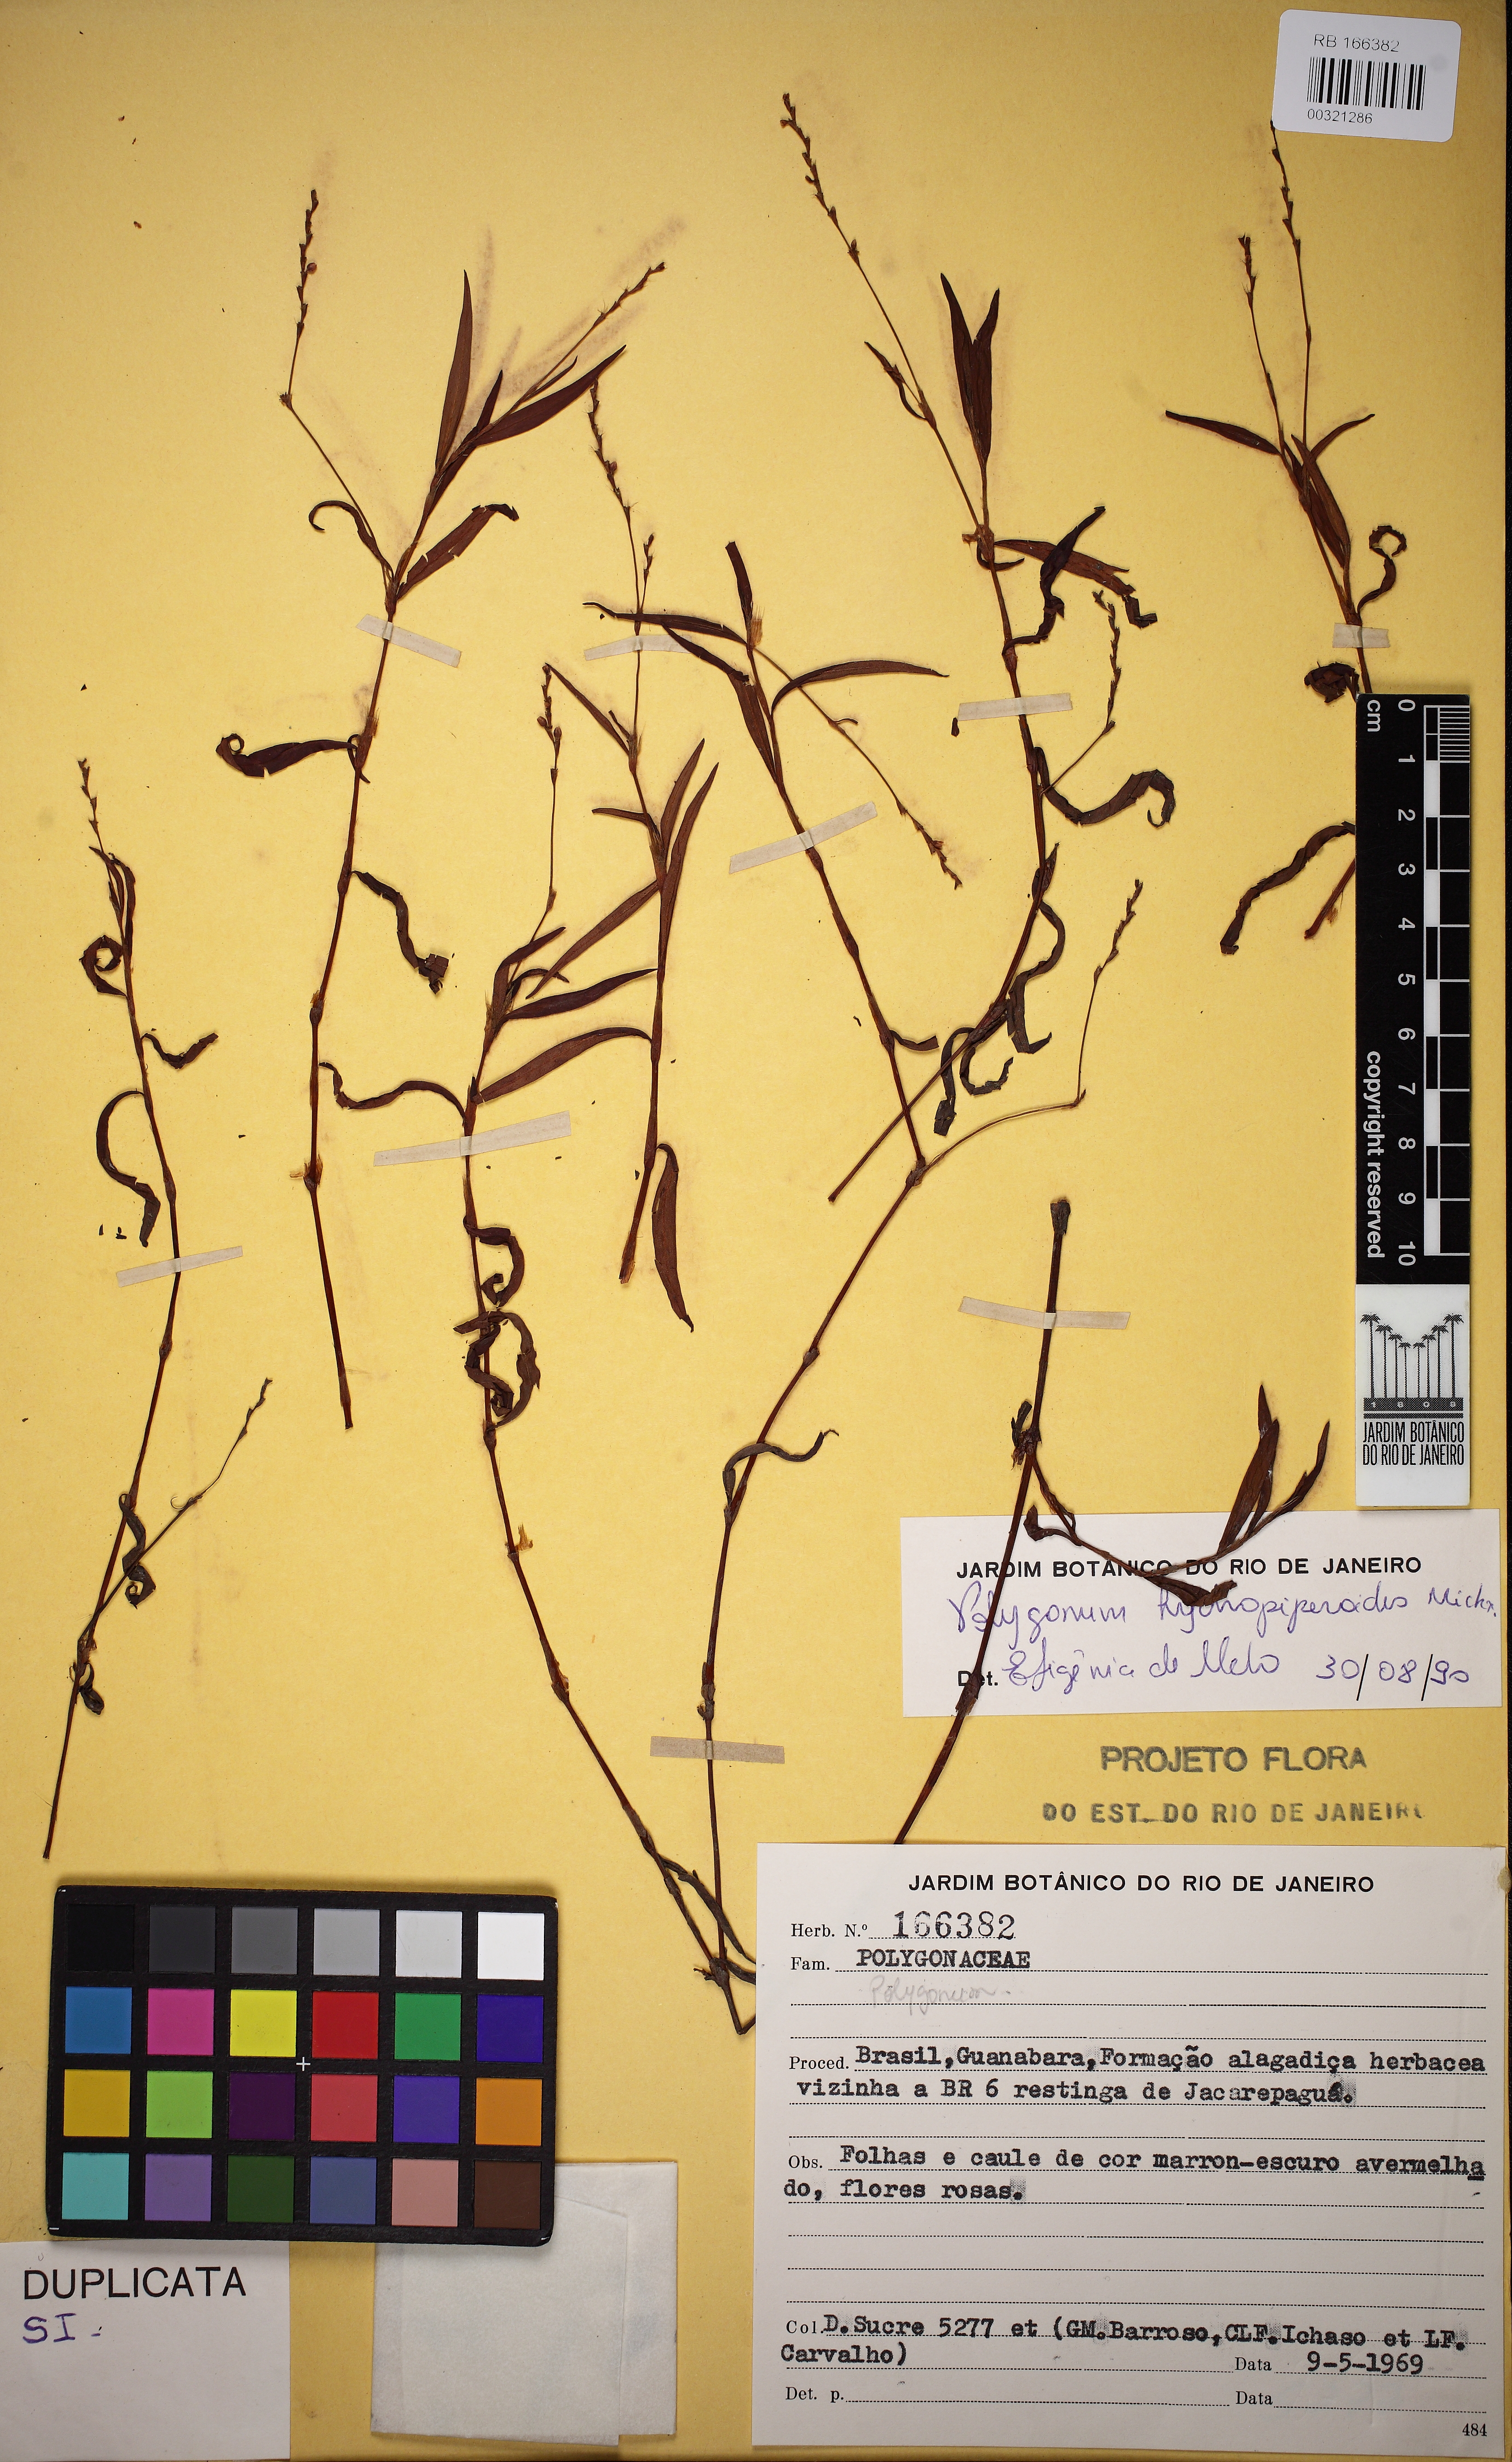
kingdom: Plantae
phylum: Tracheophyta
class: Magnoliopsida
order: Caryophyllales
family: Polygonaceae
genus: Persicaria
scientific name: Persicaria hydropiperoides
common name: Swamp smartweed
